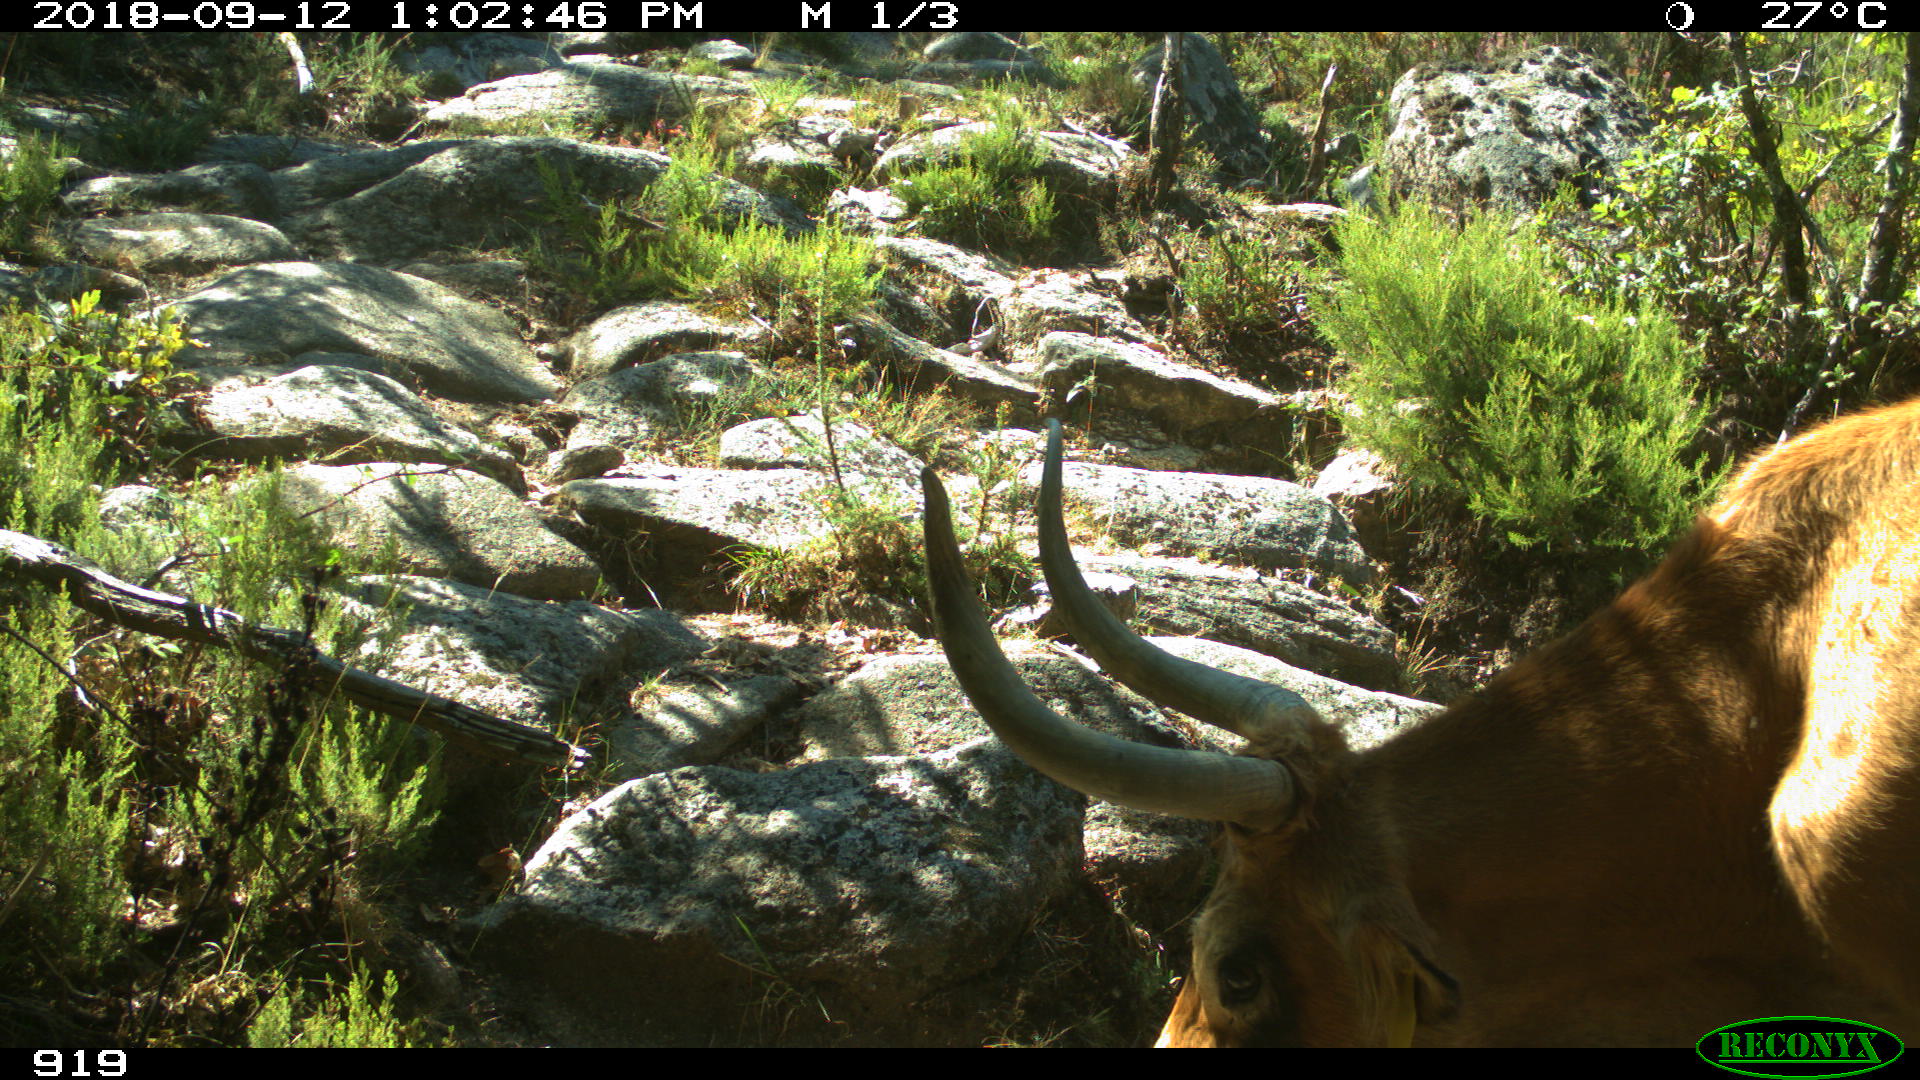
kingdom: Animalia
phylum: Chordata
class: Mammalia
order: Artiodactyla
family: Bovidae
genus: Bos
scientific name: Bos taurus
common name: Domesticated cattle
